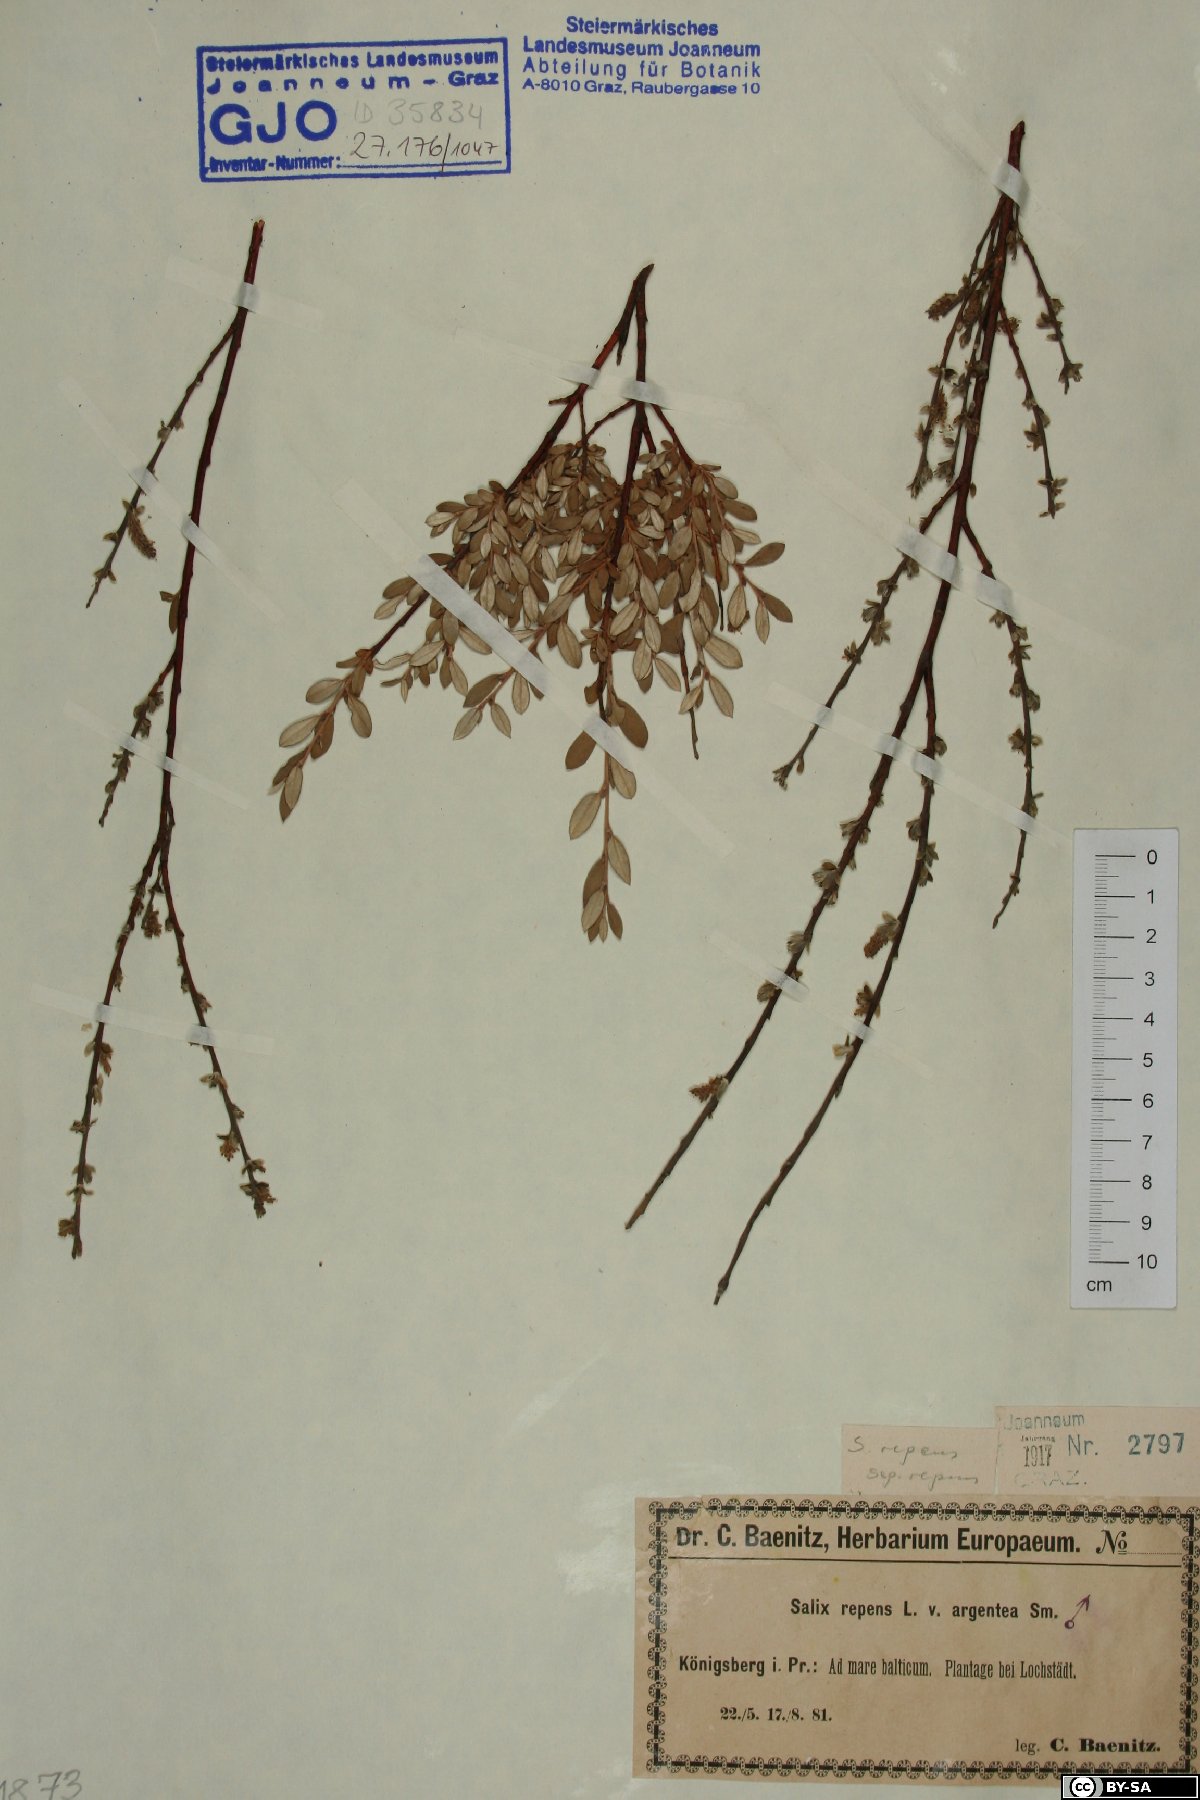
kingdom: Plantae
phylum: Tracheophyta
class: Magnoliopsida
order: Malpighiales
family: Salicaceae
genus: Salix
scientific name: Salix repens
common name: Creeping willow
